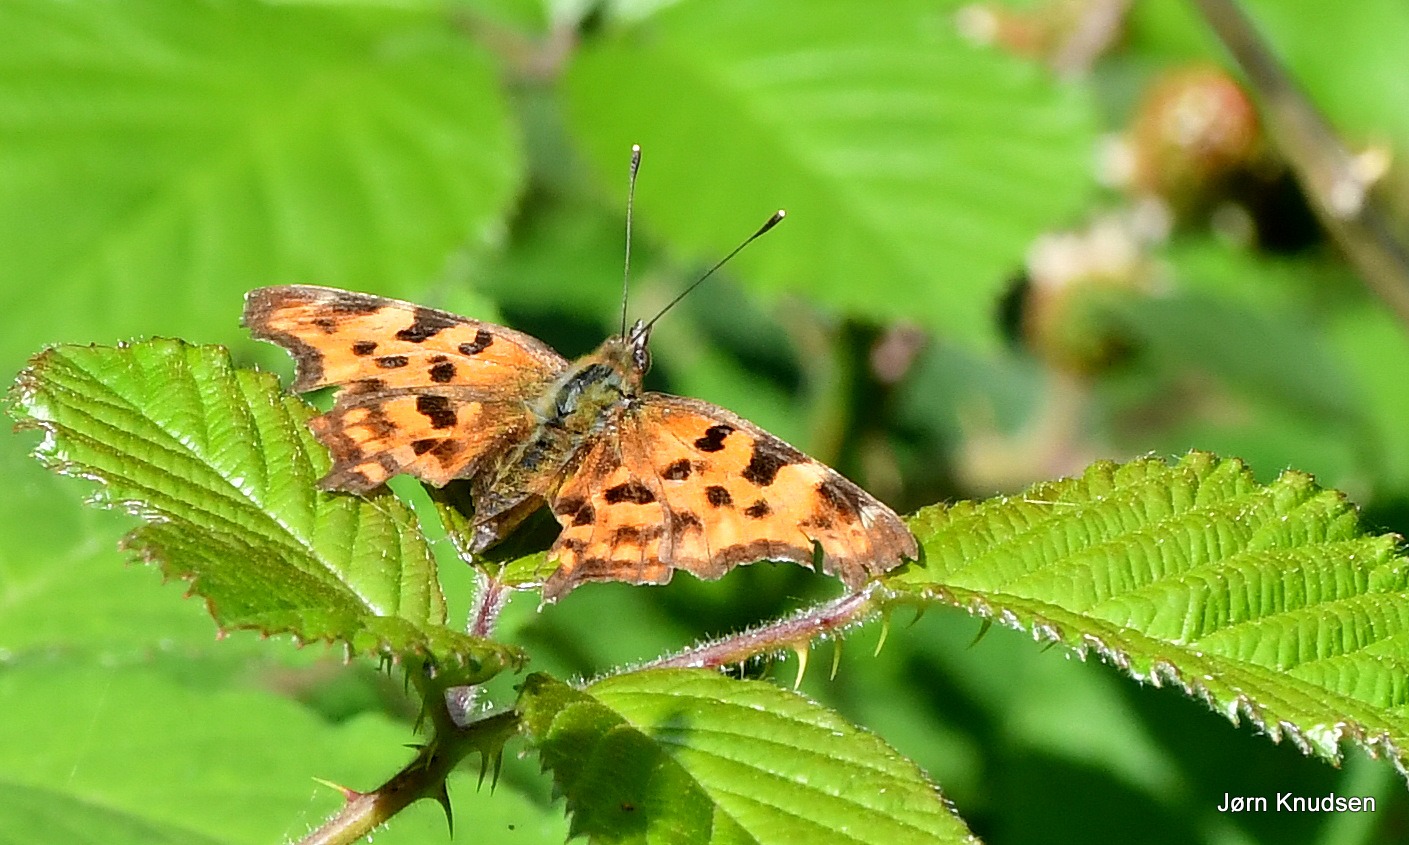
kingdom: Animalia
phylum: Arthropoda
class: Insecta
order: Lepidoptera
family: Nymphalidae
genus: Polygonia
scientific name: Polygonia c-album
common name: Det hvide C
